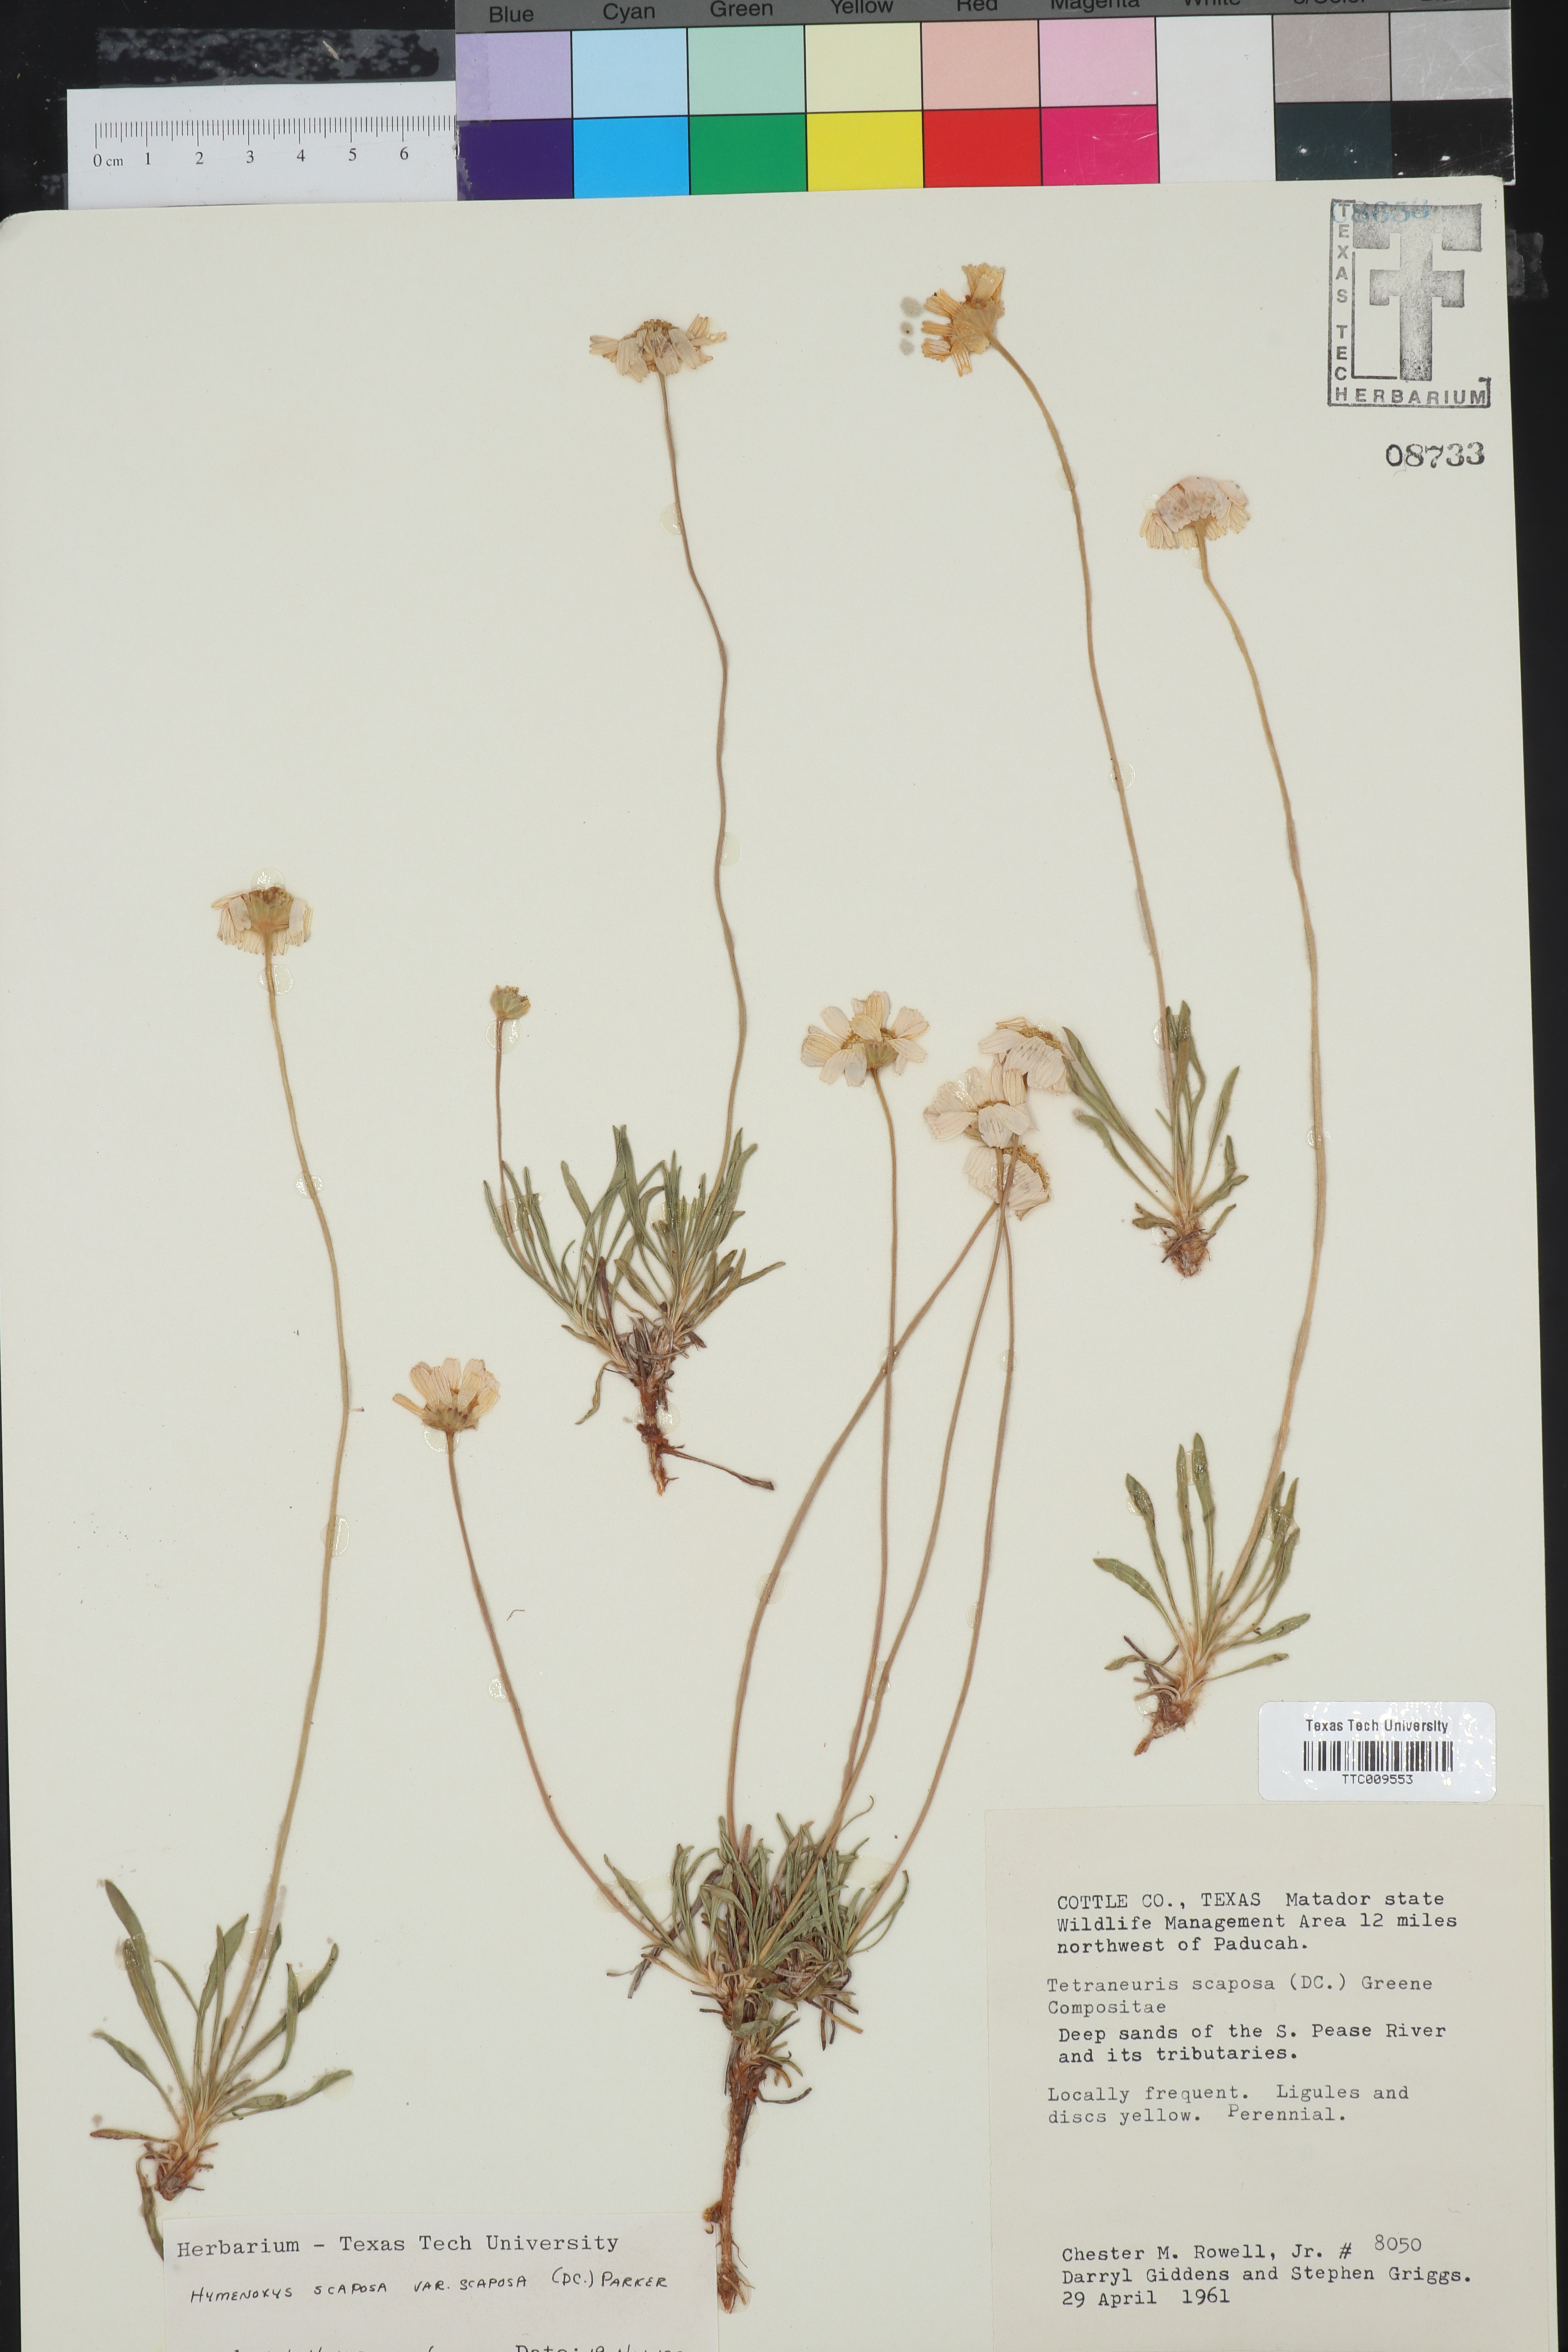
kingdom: Plantae
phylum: Tracheophyta
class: Magnoliopsida
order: Asterales
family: Asteraceae
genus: Tetraneuris
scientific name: Tetraneuris scaposa
